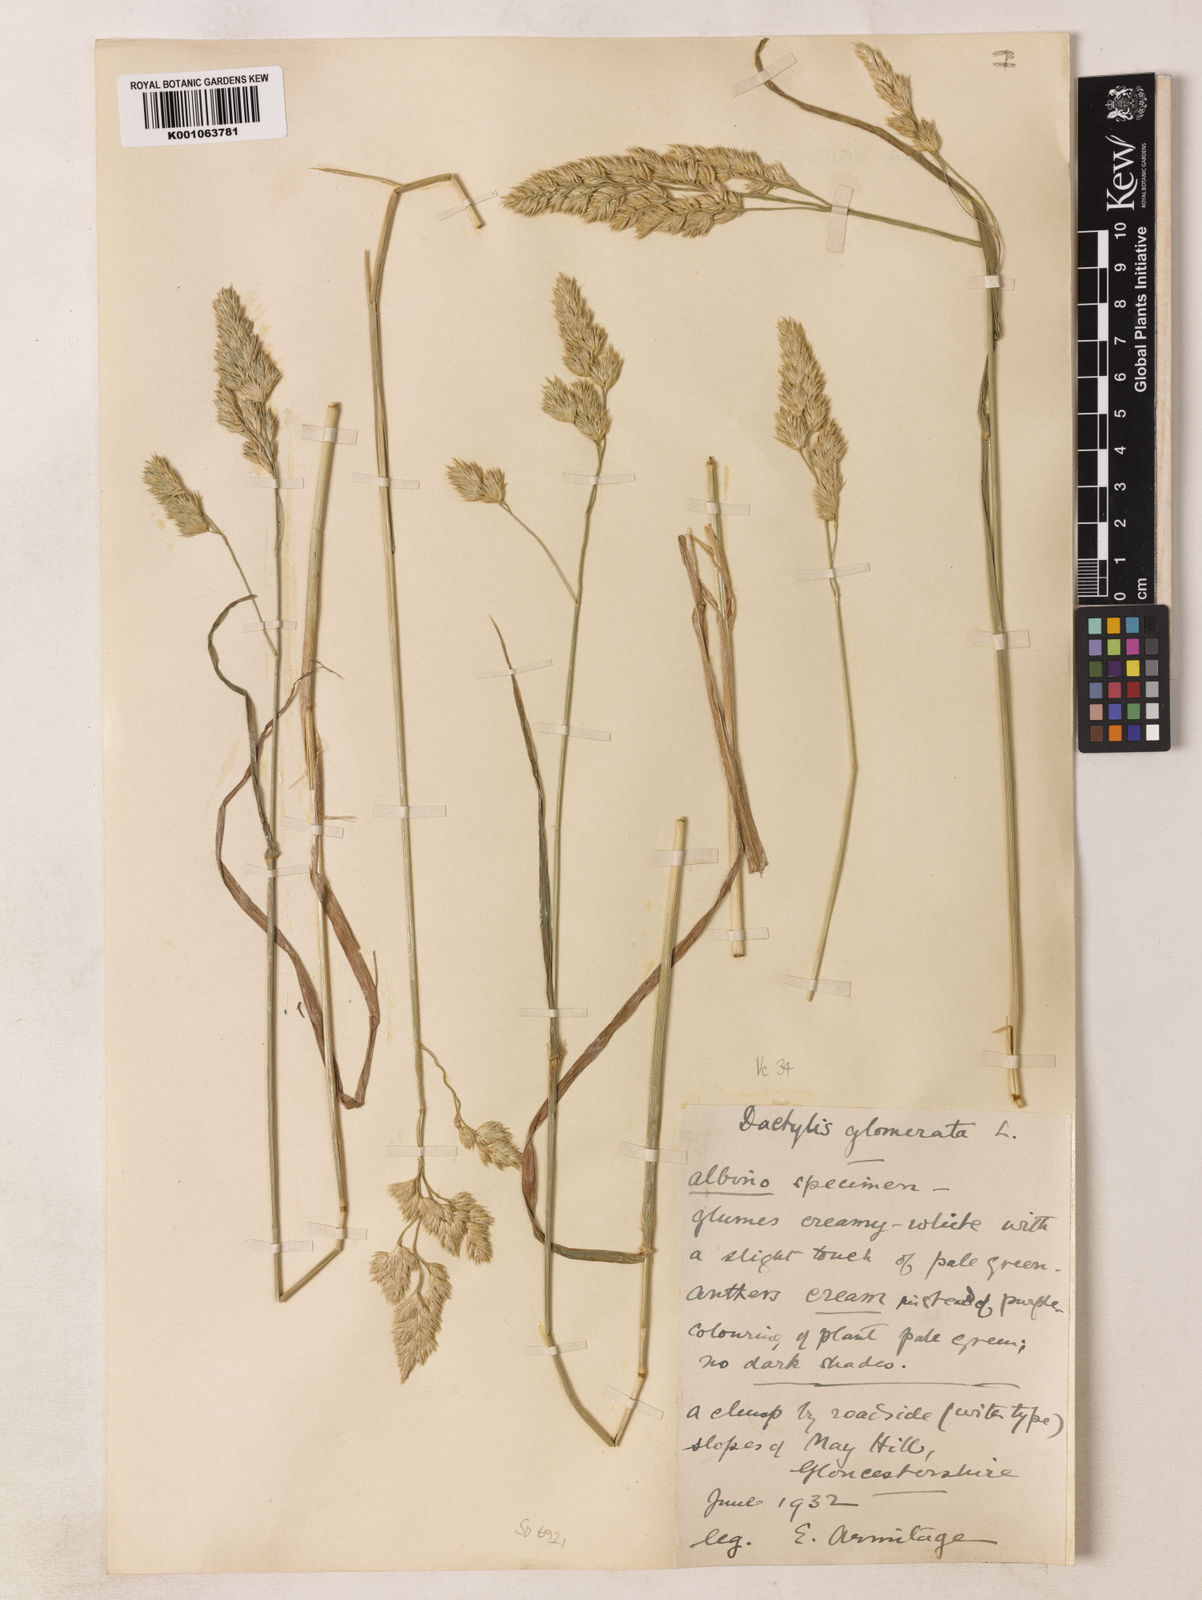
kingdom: Plantae
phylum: Tracheophyta
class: Liliopsida
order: Poales
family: Poaceae
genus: Dactylis
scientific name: Dactylis glomerata
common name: Orchardgrass
